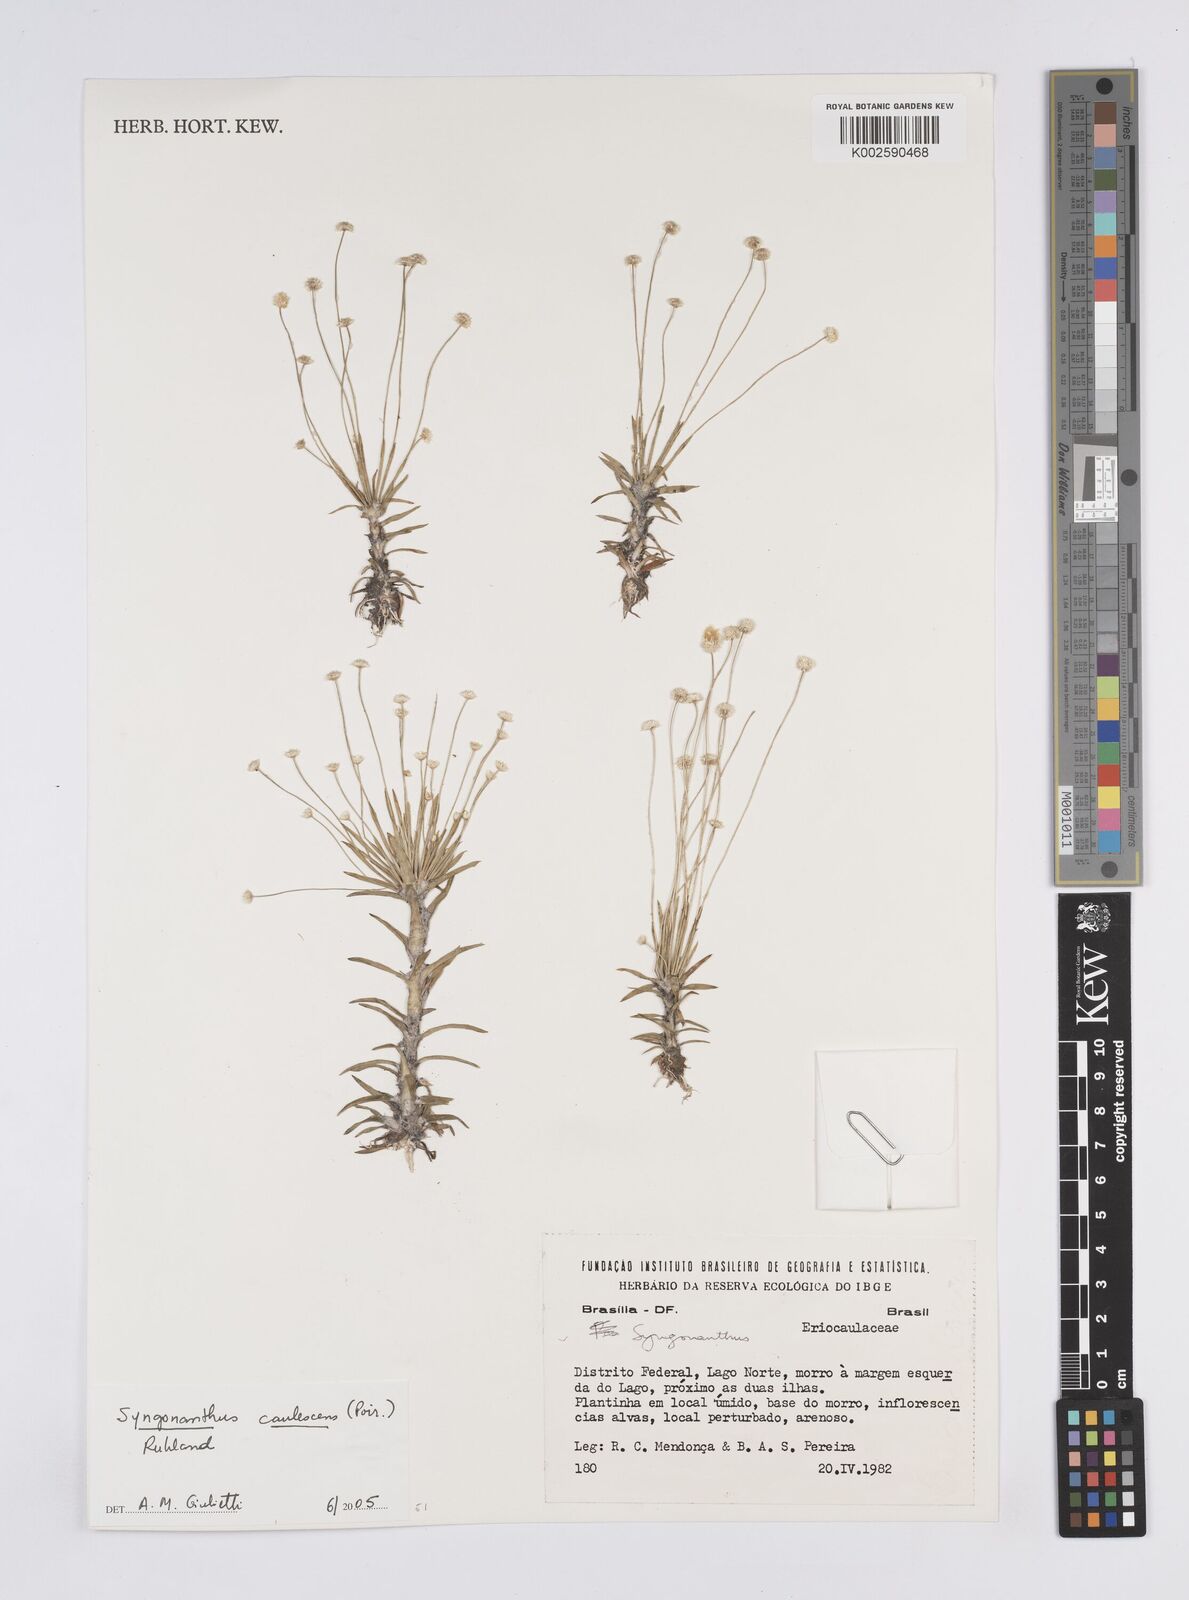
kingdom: Plantae
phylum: Tracheophyta
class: Liliopsida
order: Poales
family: Eriocaulaceae
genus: Syngonanthus
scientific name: Syngonanthus caulescens
